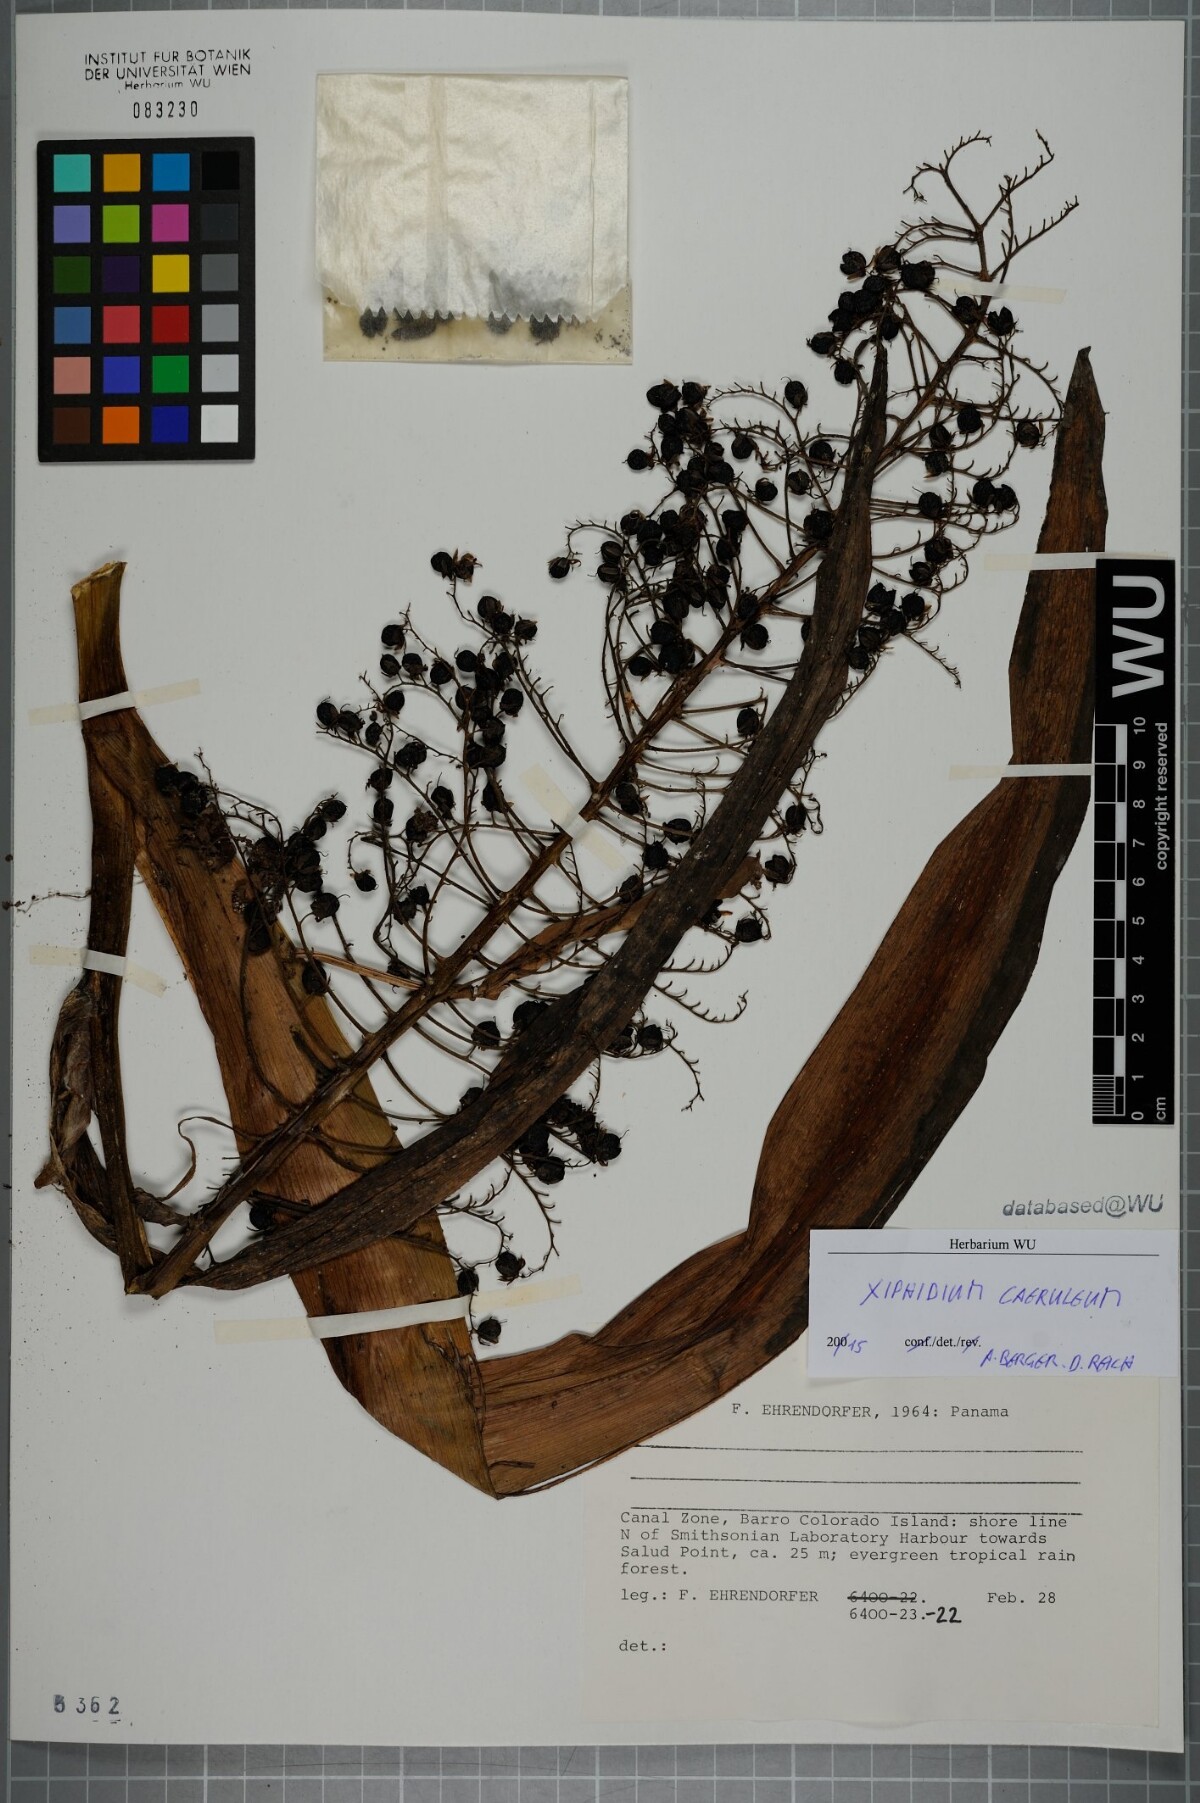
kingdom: Plantae
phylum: Tracheophyta
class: Liliopsida
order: Commelinales
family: Haemodoraceae
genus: Xiphidium
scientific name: Xiphidium caeruleum
